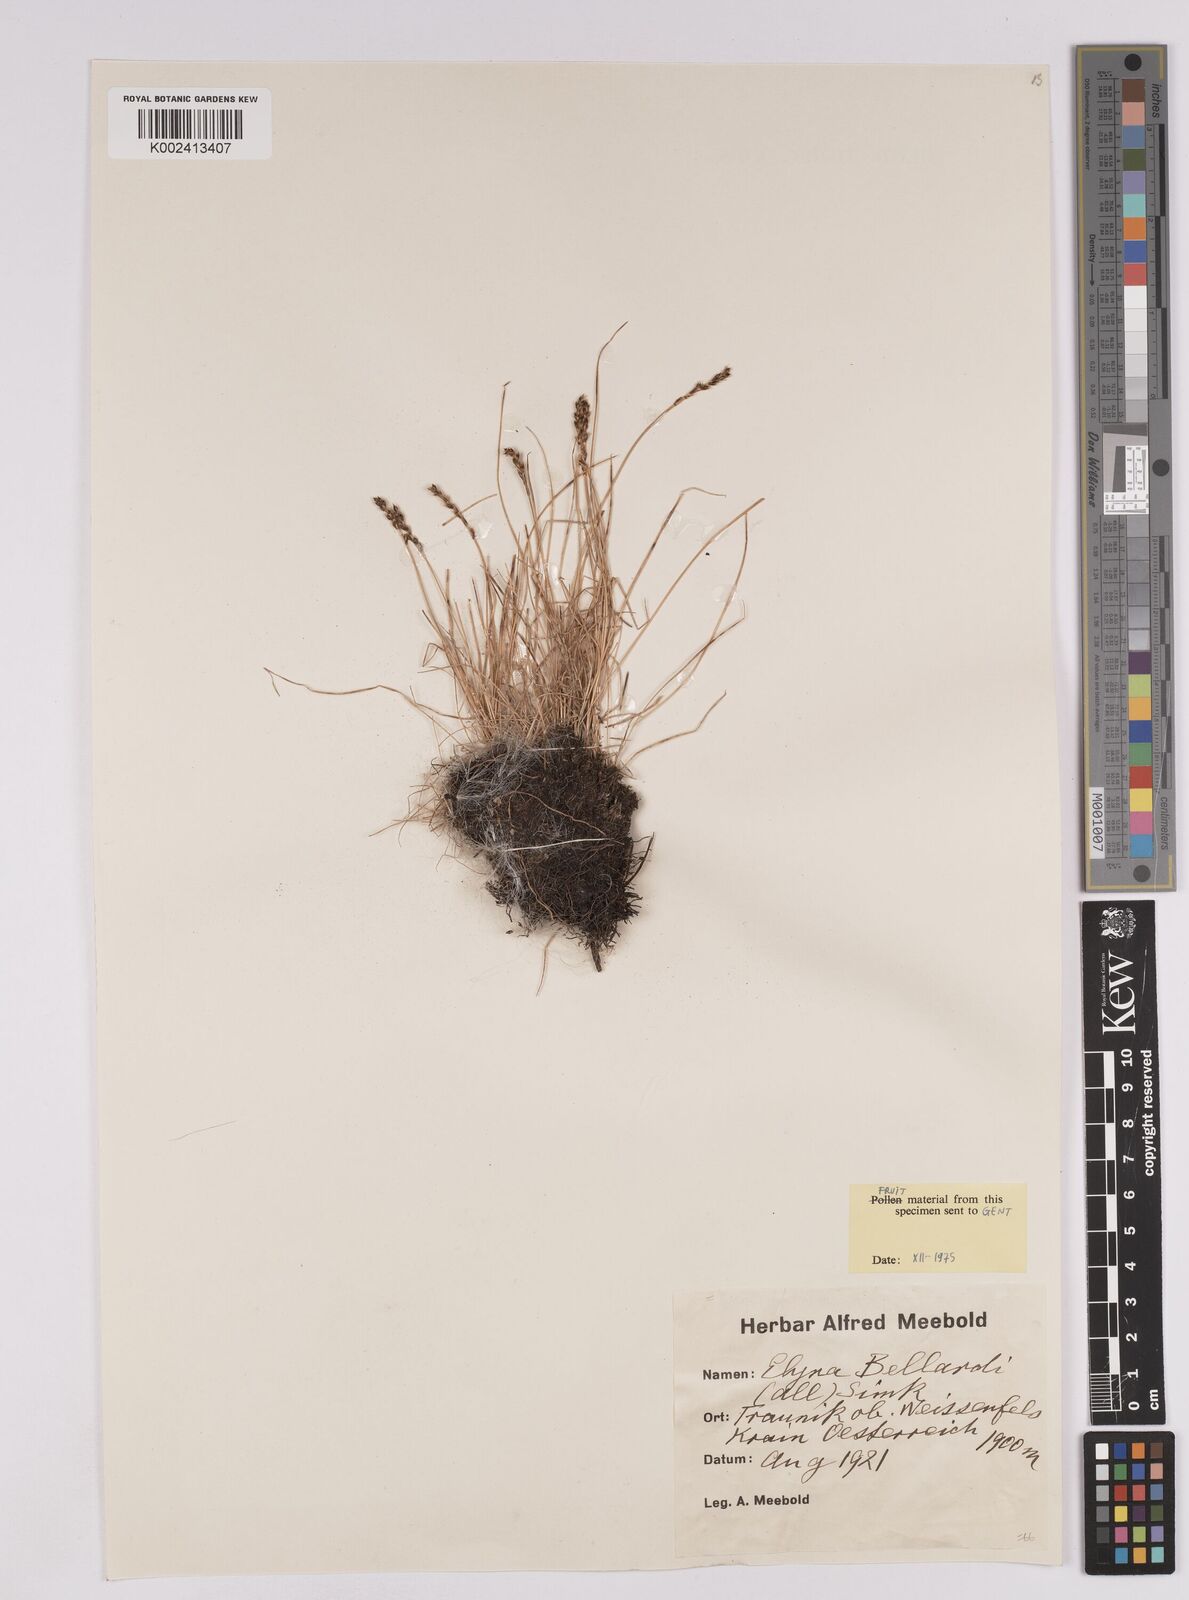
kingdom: Plantae
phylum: Tracheophyta
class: Liliopsida
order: Poales
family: Cyperaceae
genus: Carex
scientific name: Carex myosuroides
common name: Bellard's bog sedge
